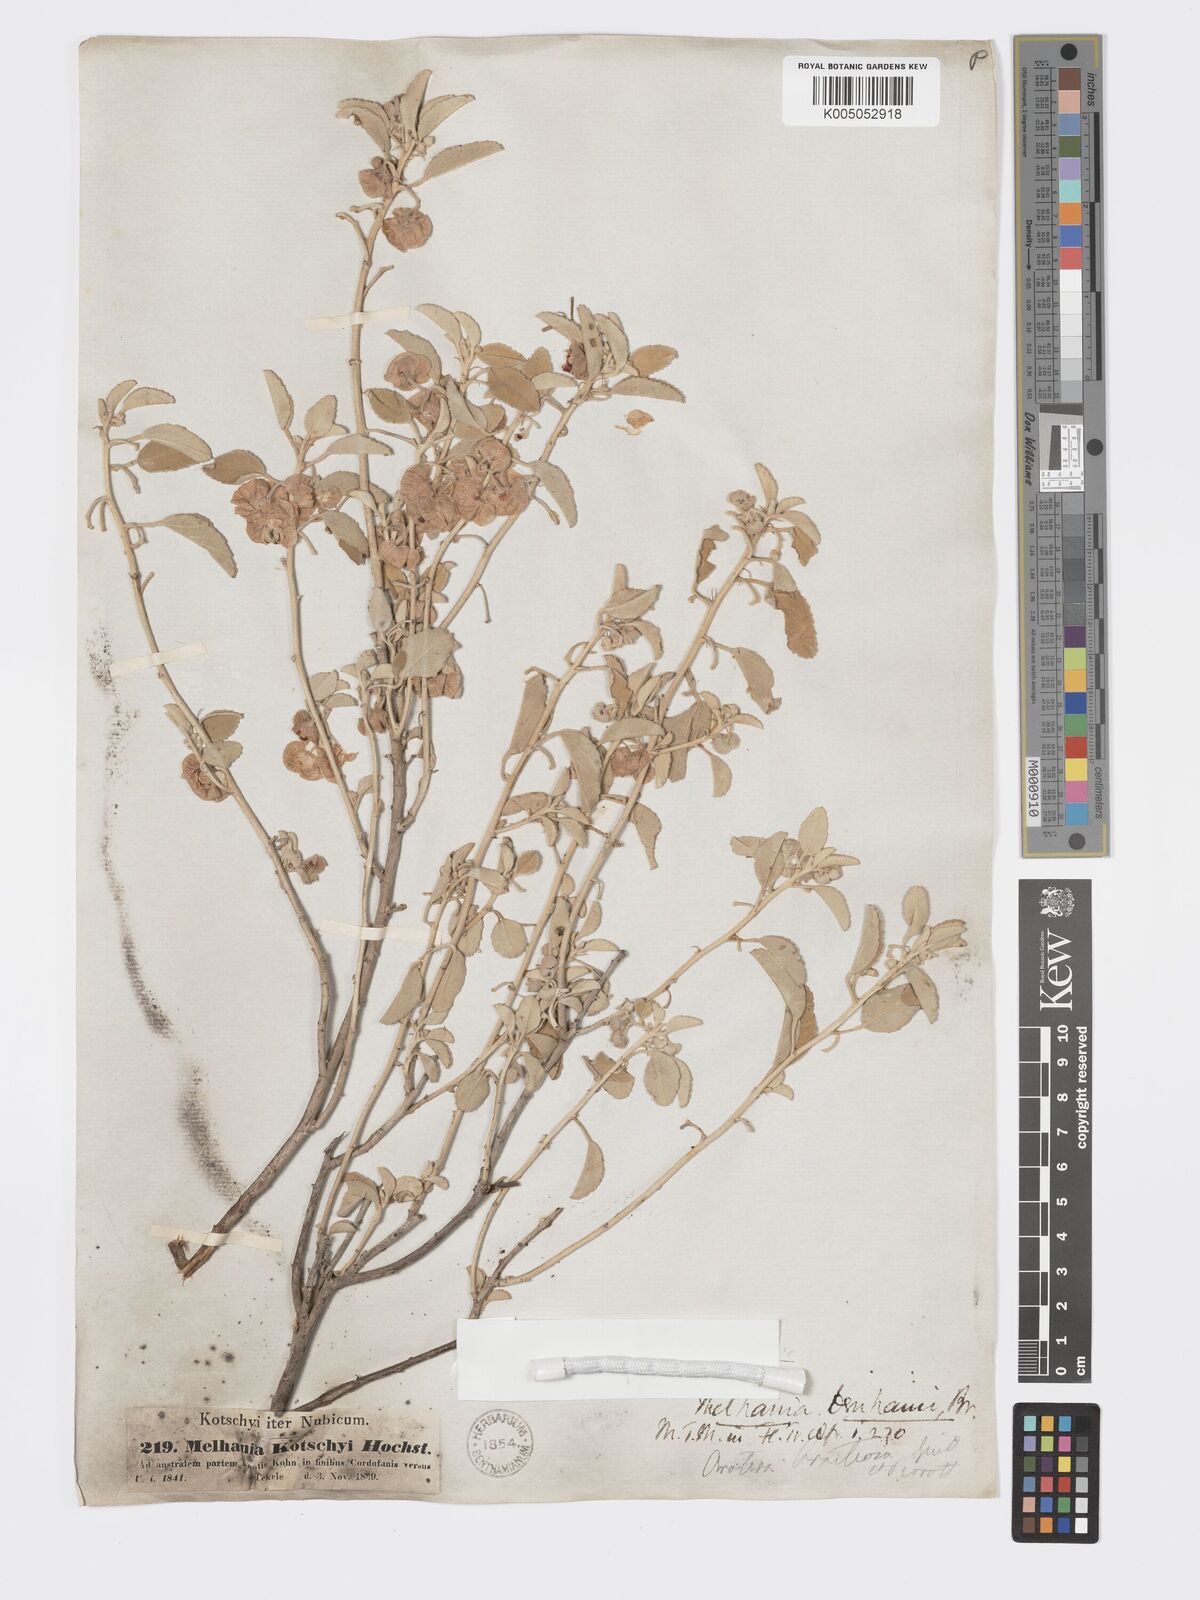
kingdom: Plantae
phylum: Tracheophyta
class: Magnoliopsida
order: Malvales
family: Malvaceae
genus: Melhania
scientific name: Melhania denhamii
